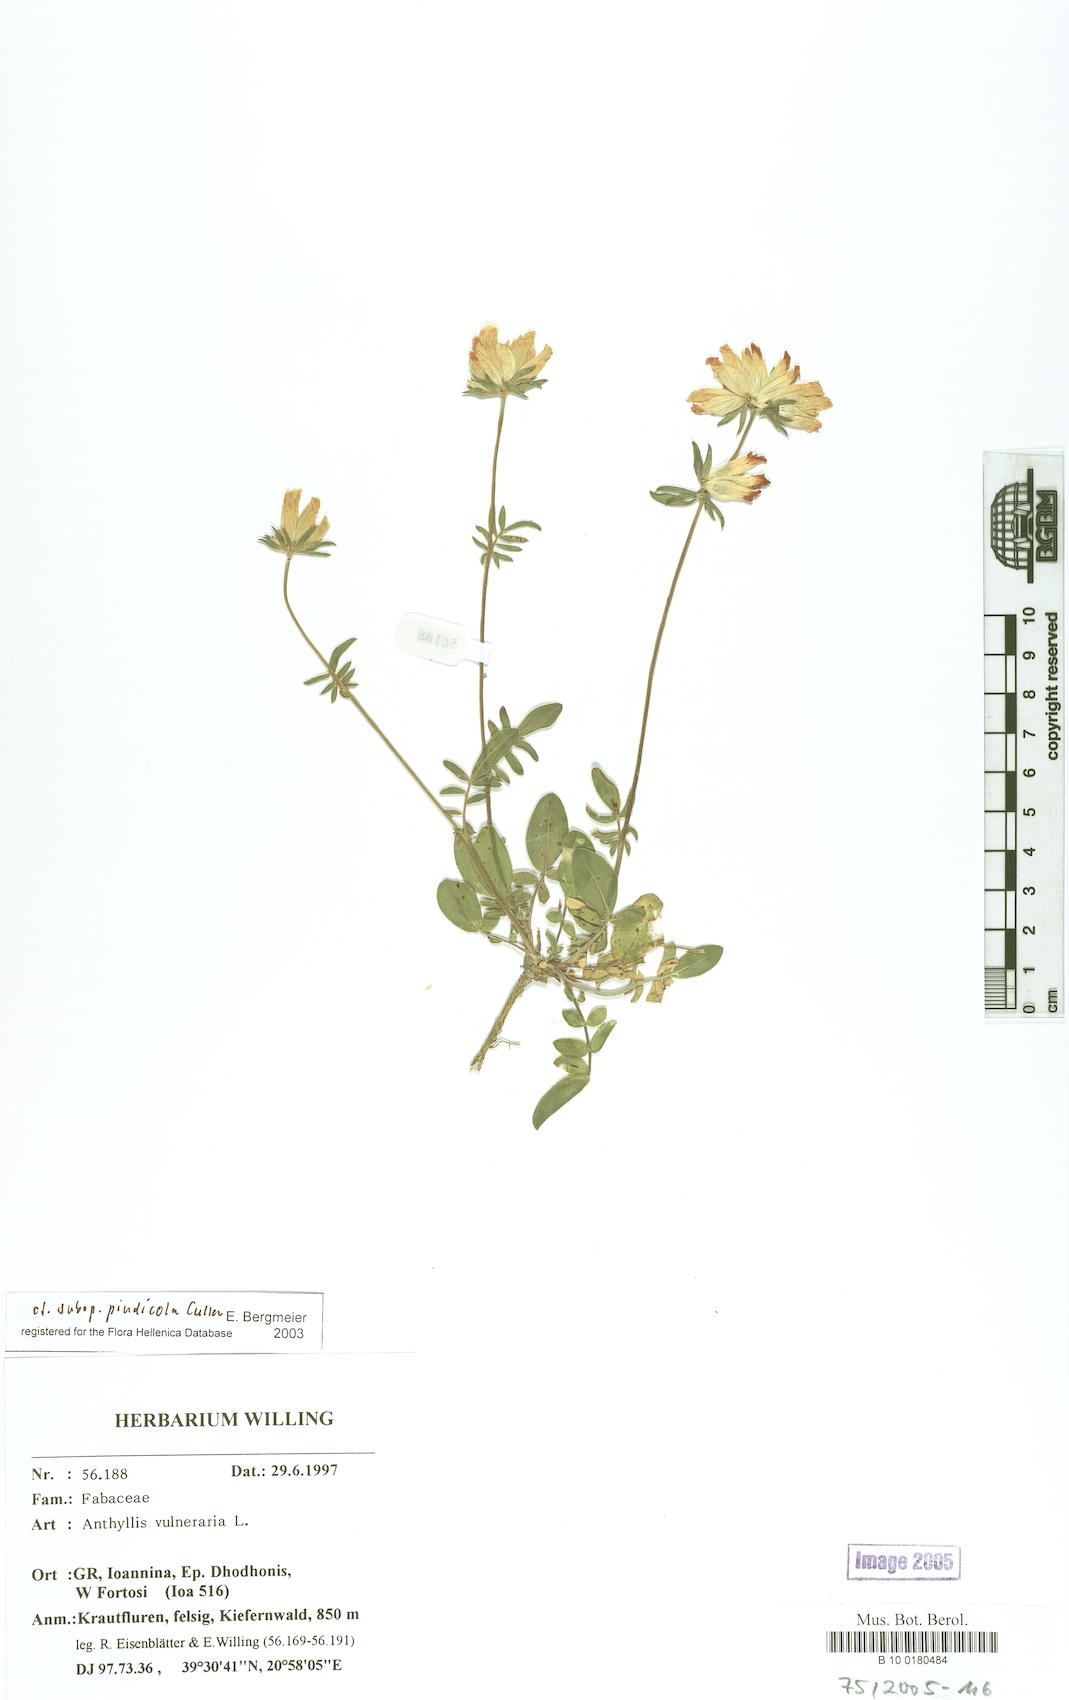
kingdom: Plantae
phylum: Tracheophyta
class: Magnoliopsida
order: Fabales
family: Fabaceae
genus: Anthyllis
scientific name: Anthyllis vulneraria
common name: Kidney vetch
